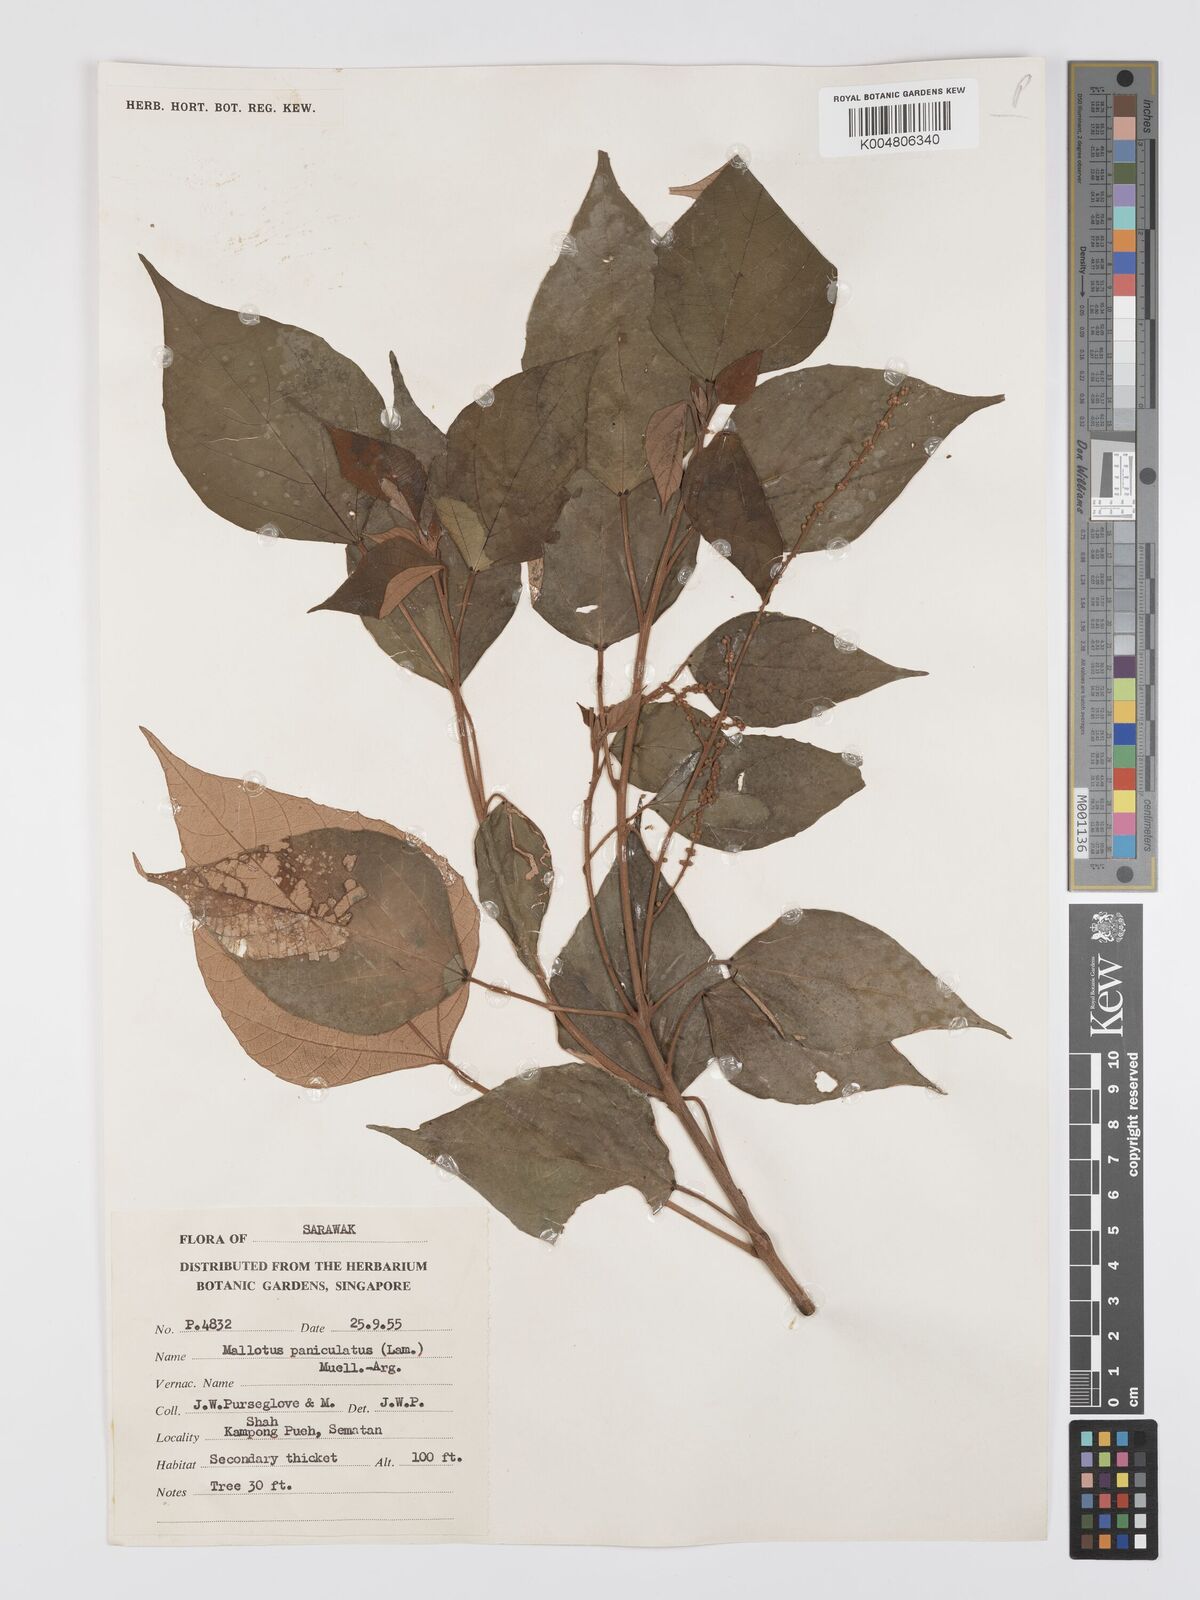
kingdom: Plantae
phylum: Tracheophyta
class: Magnoliopsida
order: Malpighiales
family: Euphorbiaceae
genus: Mallotus
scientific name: Mallotus paniculatus
